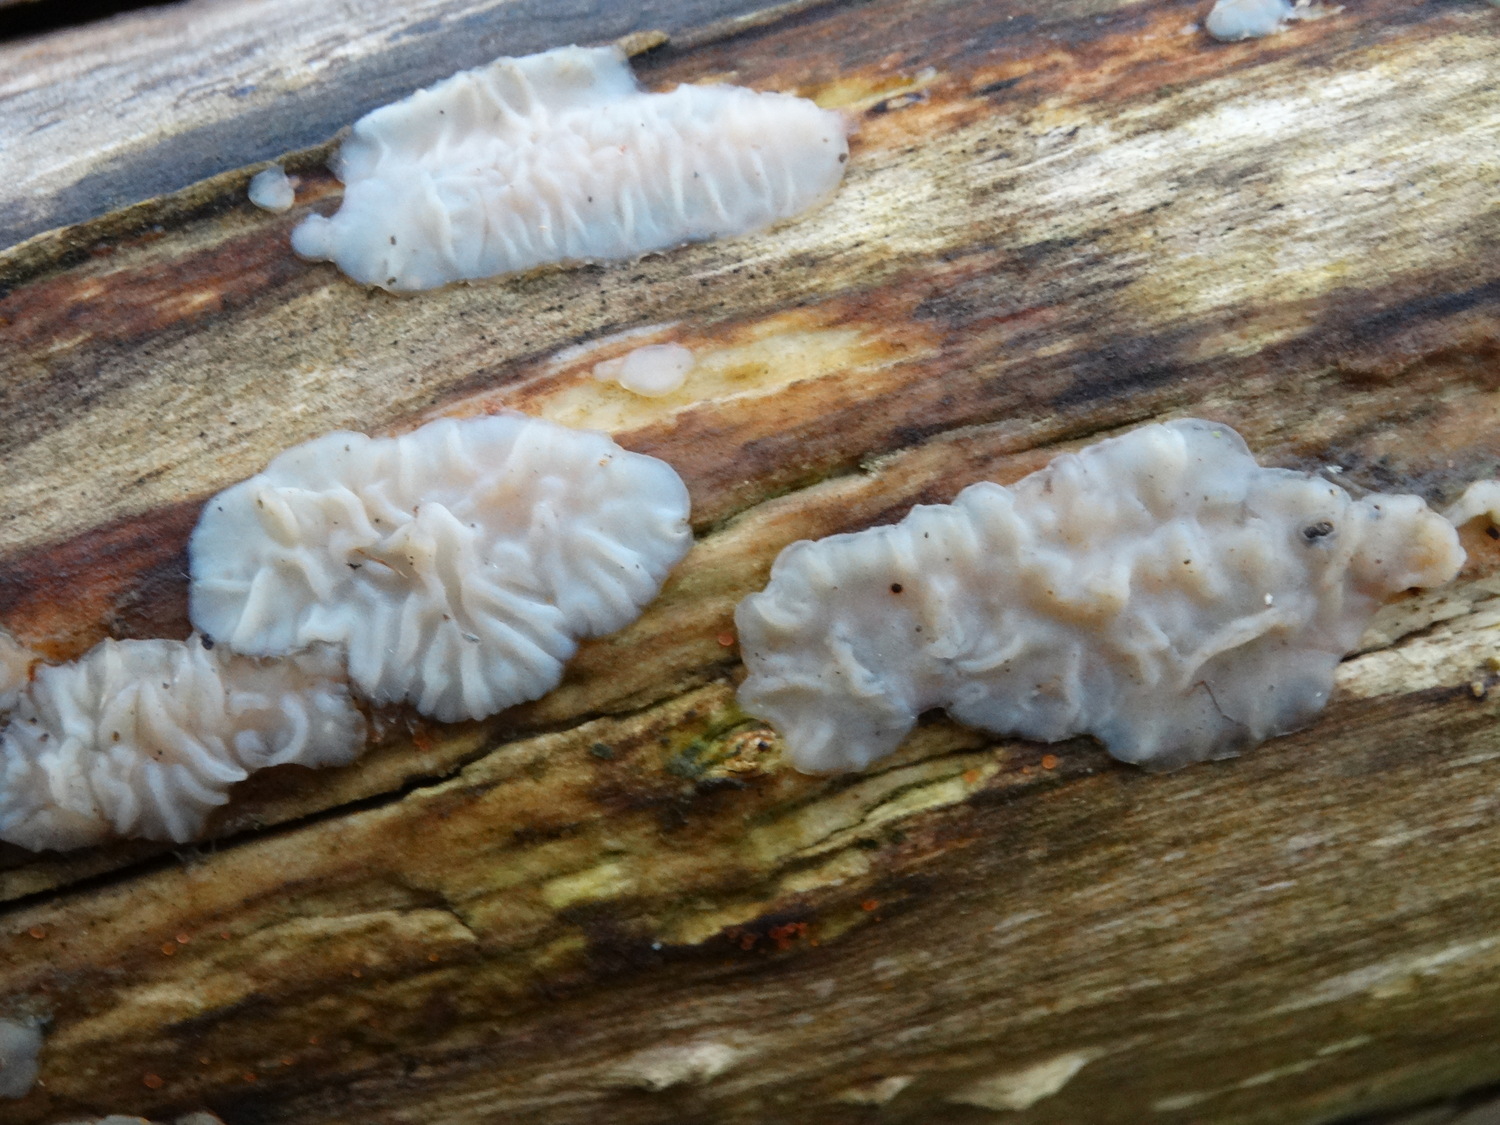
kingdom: Fungi
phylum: Basidiomycota
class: Agaricomycetes
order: Auriculariales
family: Auriculariaceae
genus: Exidia
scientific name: Exidia thuretiana
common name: hvidlig bævretop
